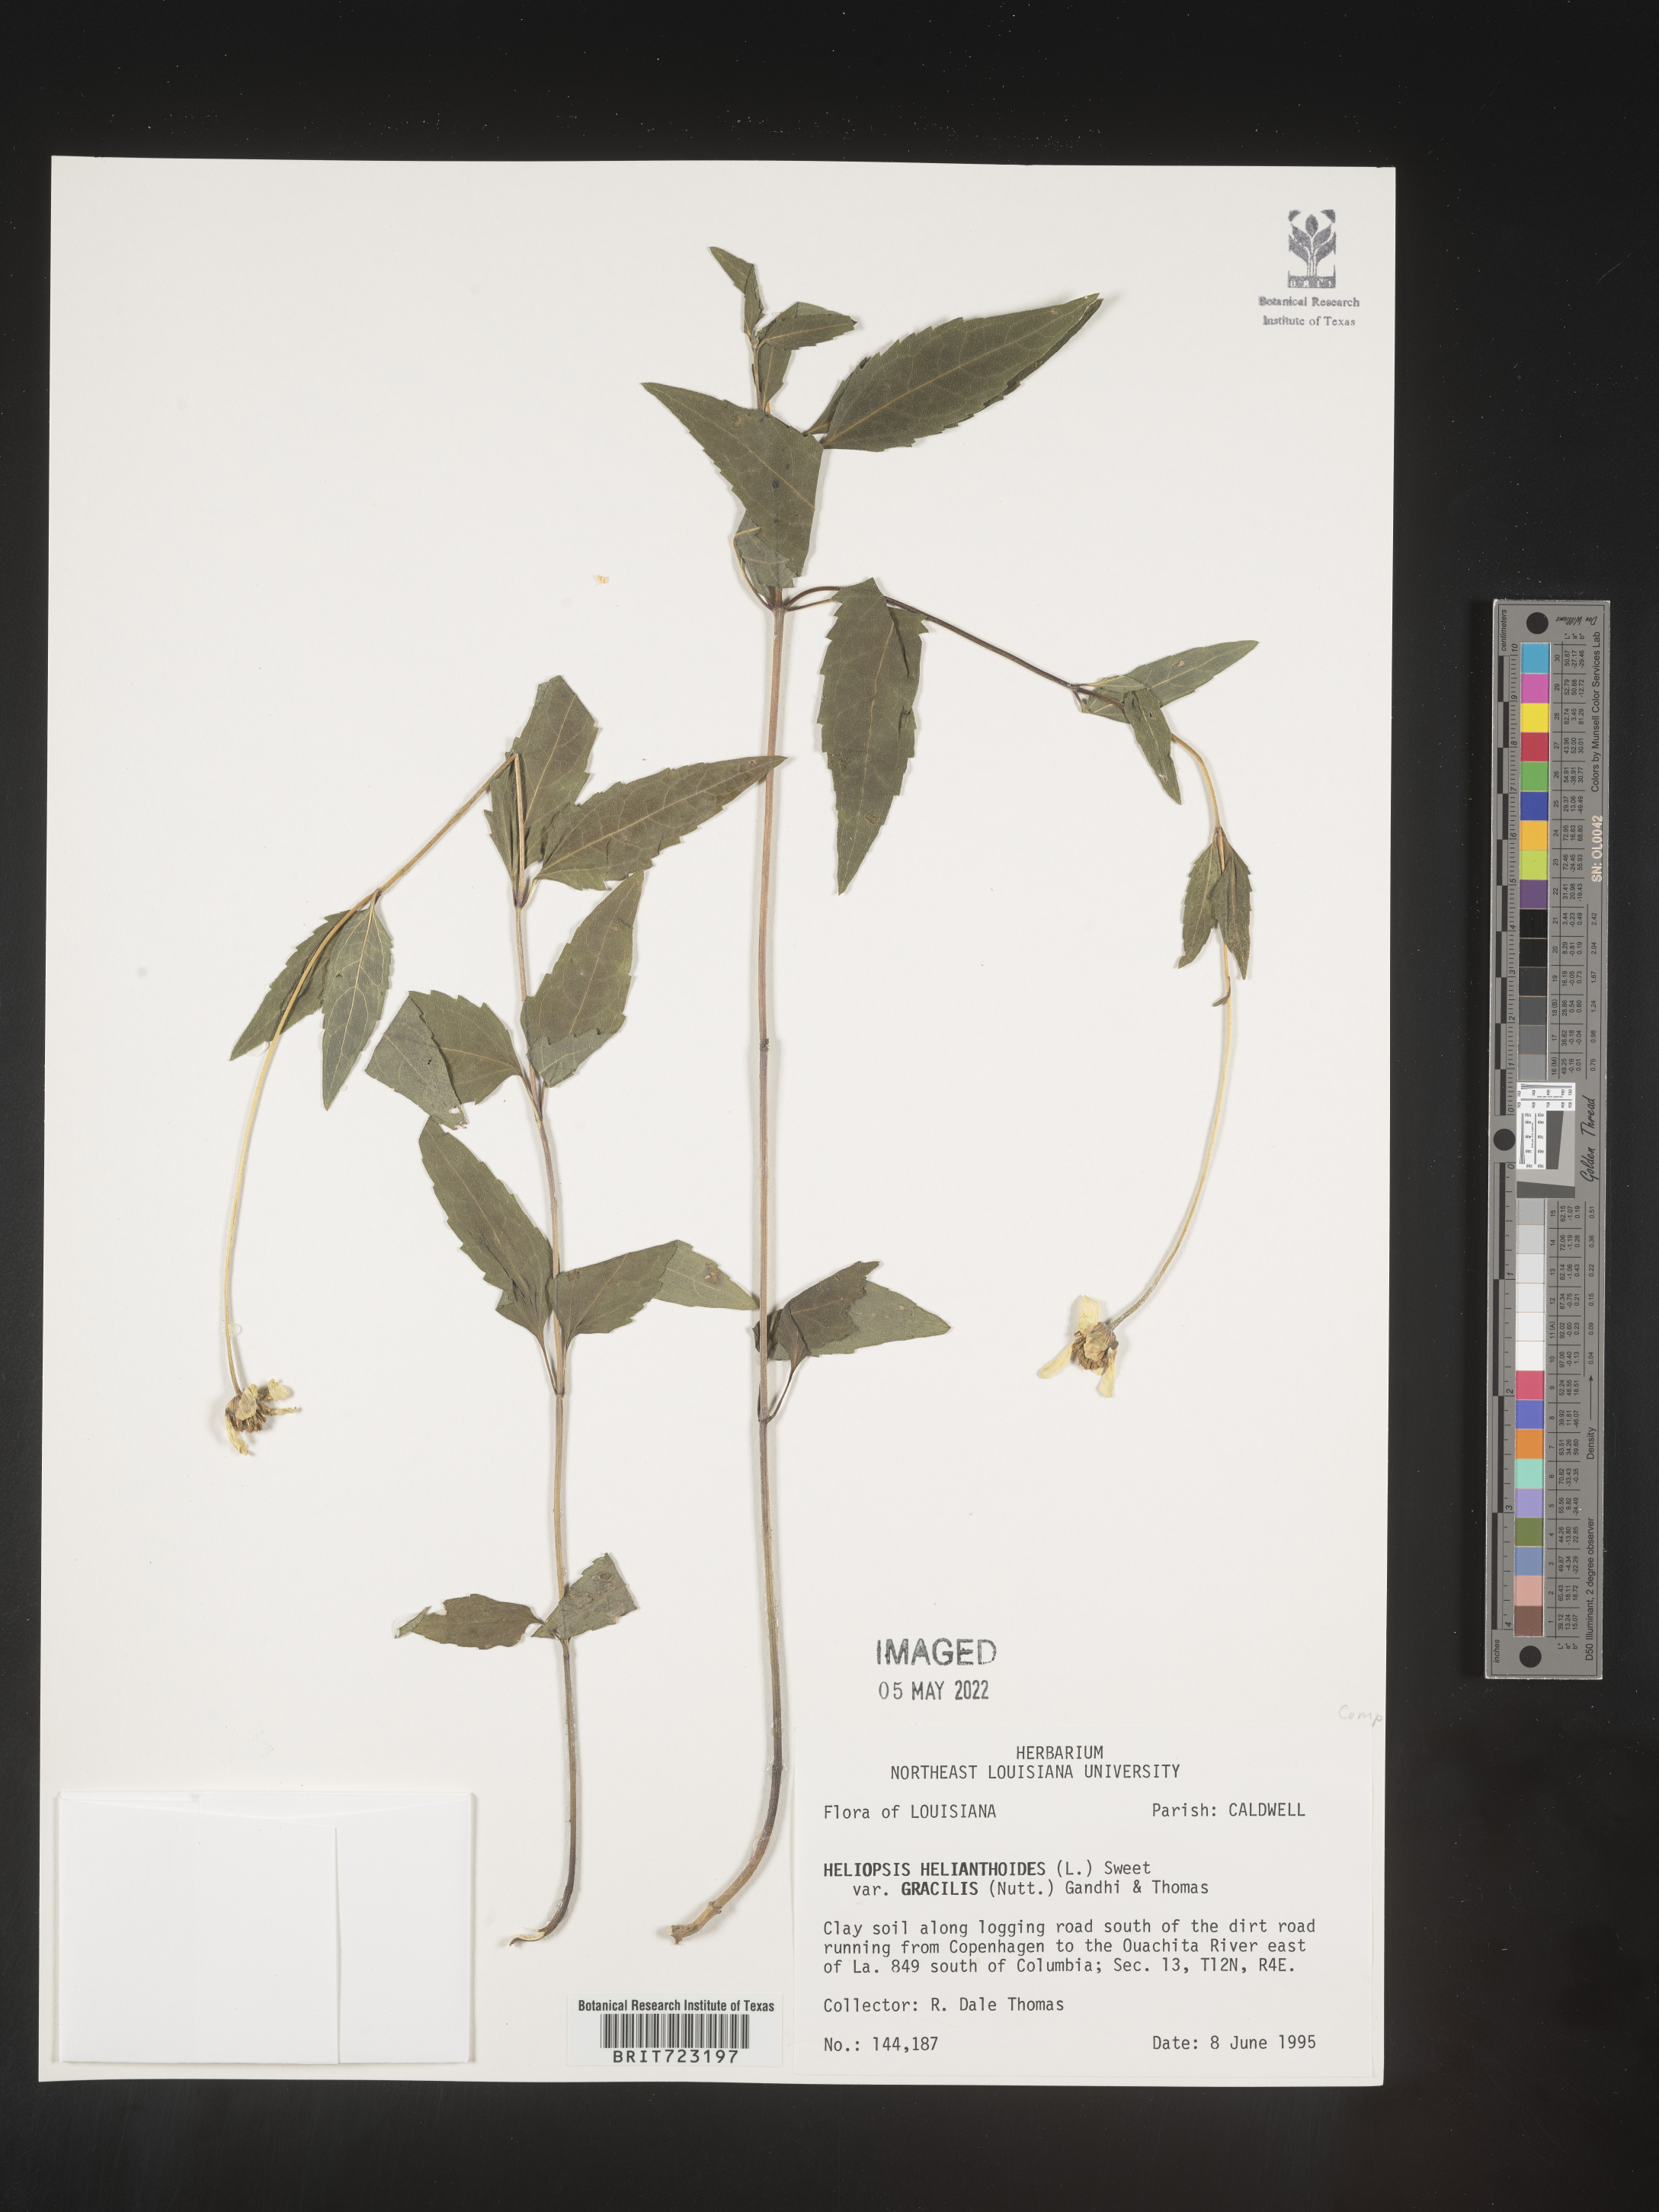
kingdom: Plantae
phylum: Tracheophyta
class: Magnoliopsida
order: Asterales
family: Asteraceae
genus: Heliopsis
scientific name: Heliopsis helianthoides
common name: False sunflower
